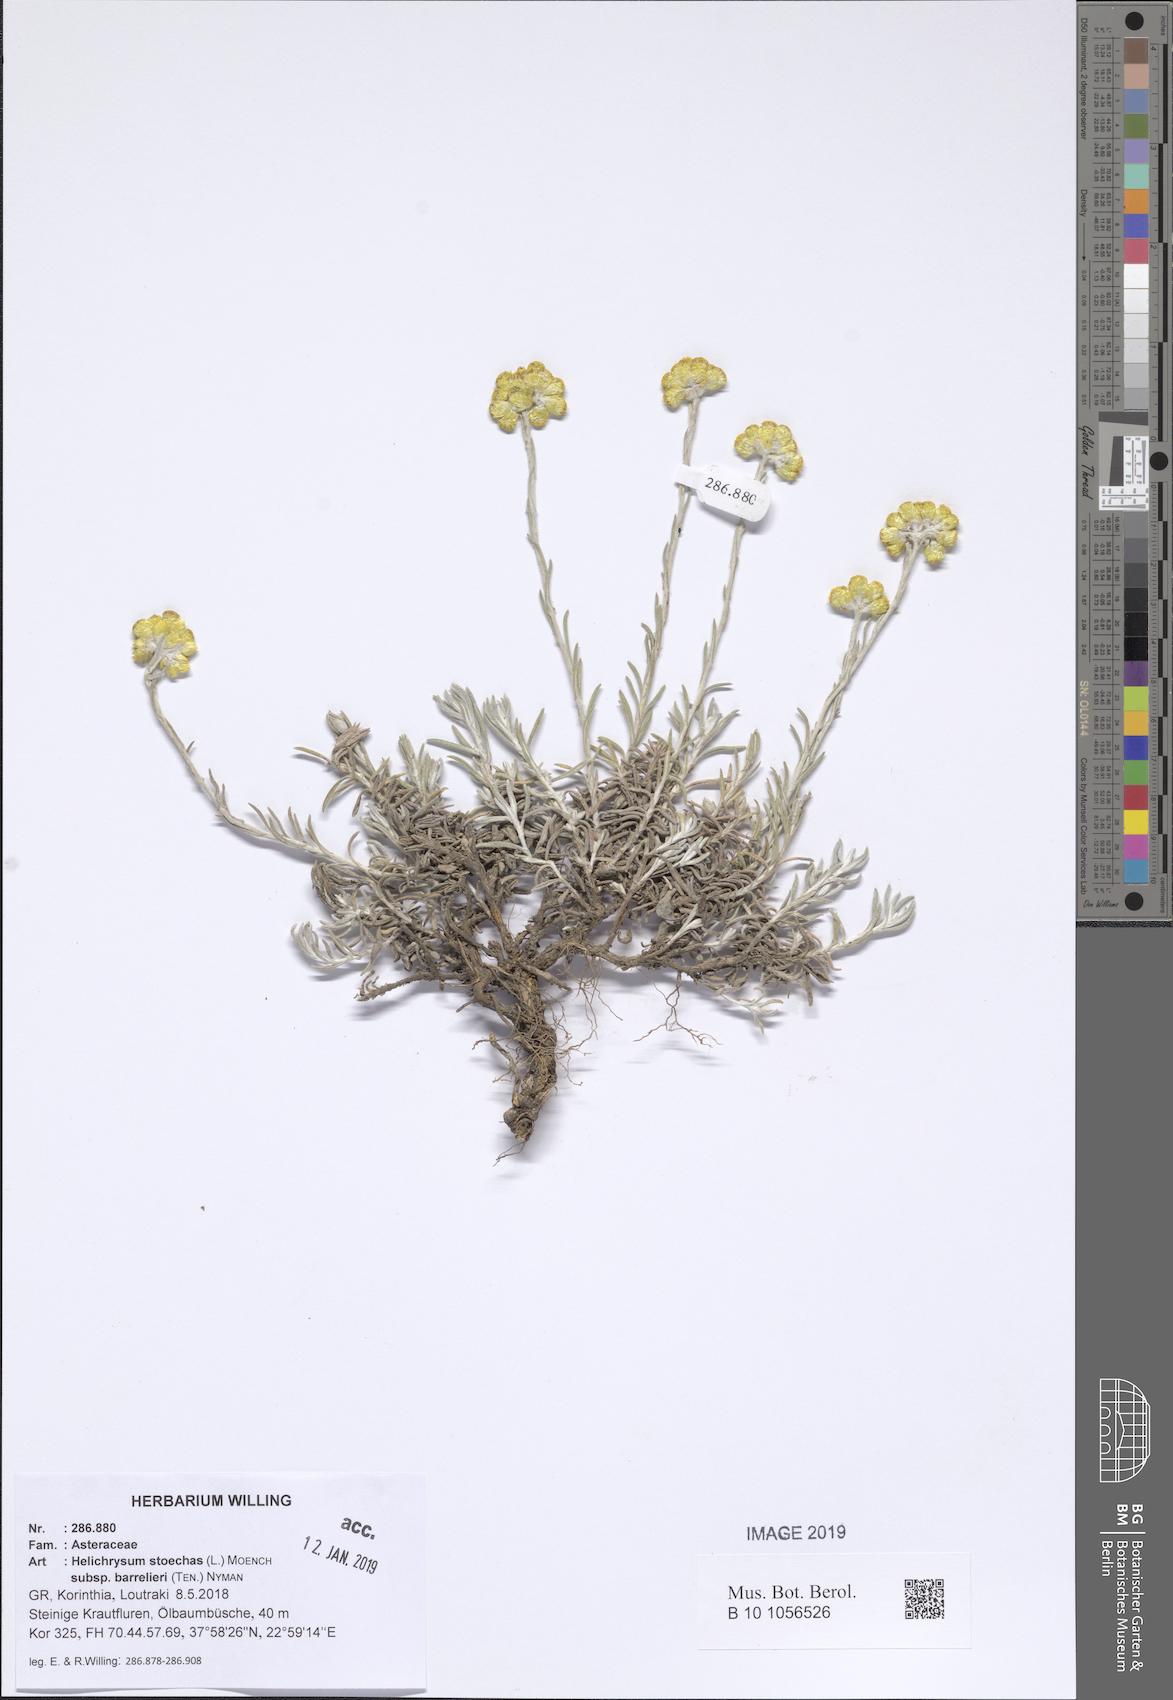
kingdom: Plantae
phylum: Tracheophyta
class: Magnoliopsida
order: Asterales
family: Asteraceae
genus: Helichrysum
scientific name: Helichrysum stoechas
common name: Goldilocks
